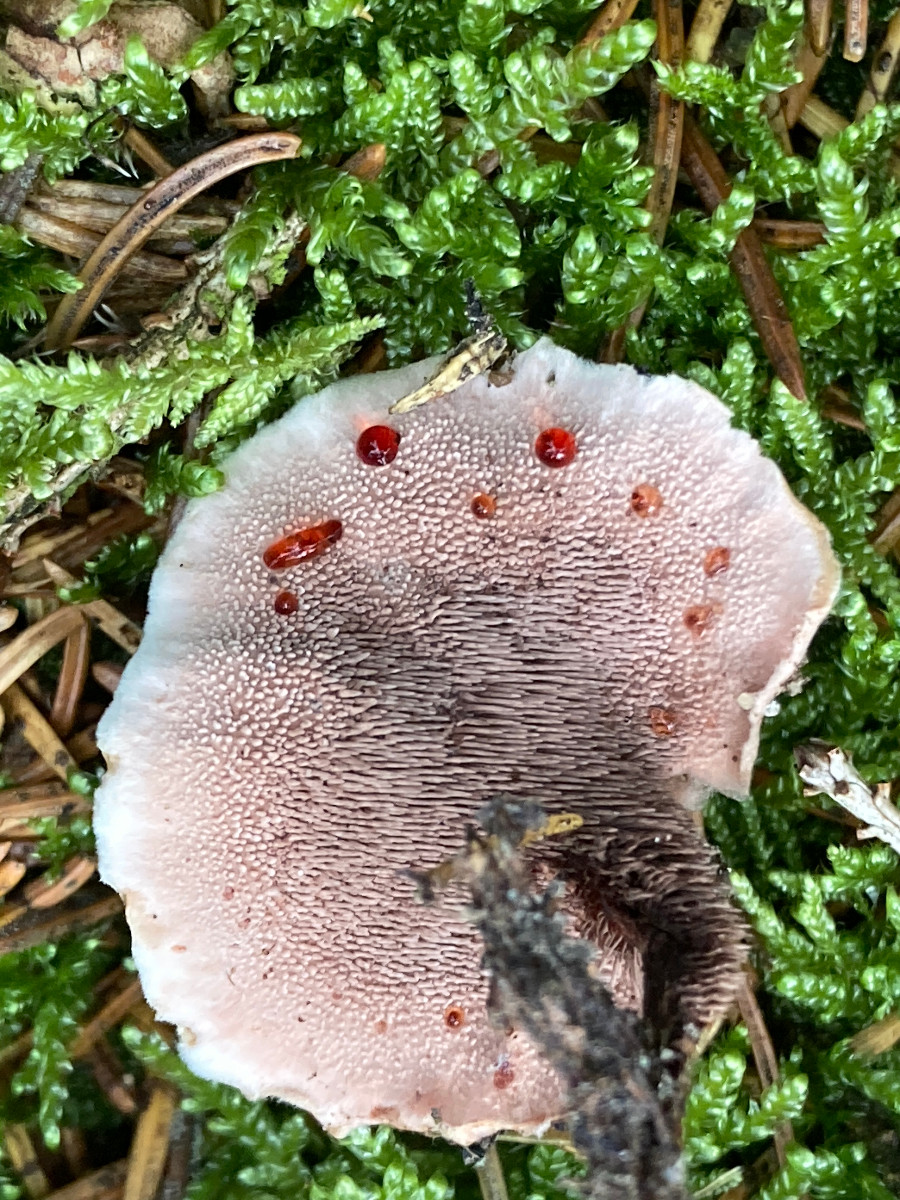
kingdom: Fungi
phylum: Basidiomycota
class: Agaricomycetes
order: Thelephorales
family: Bankeraceae
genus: Hydnellum
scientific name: Hydnellum gracilipes
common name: tyndstokket korkpigsvamp
